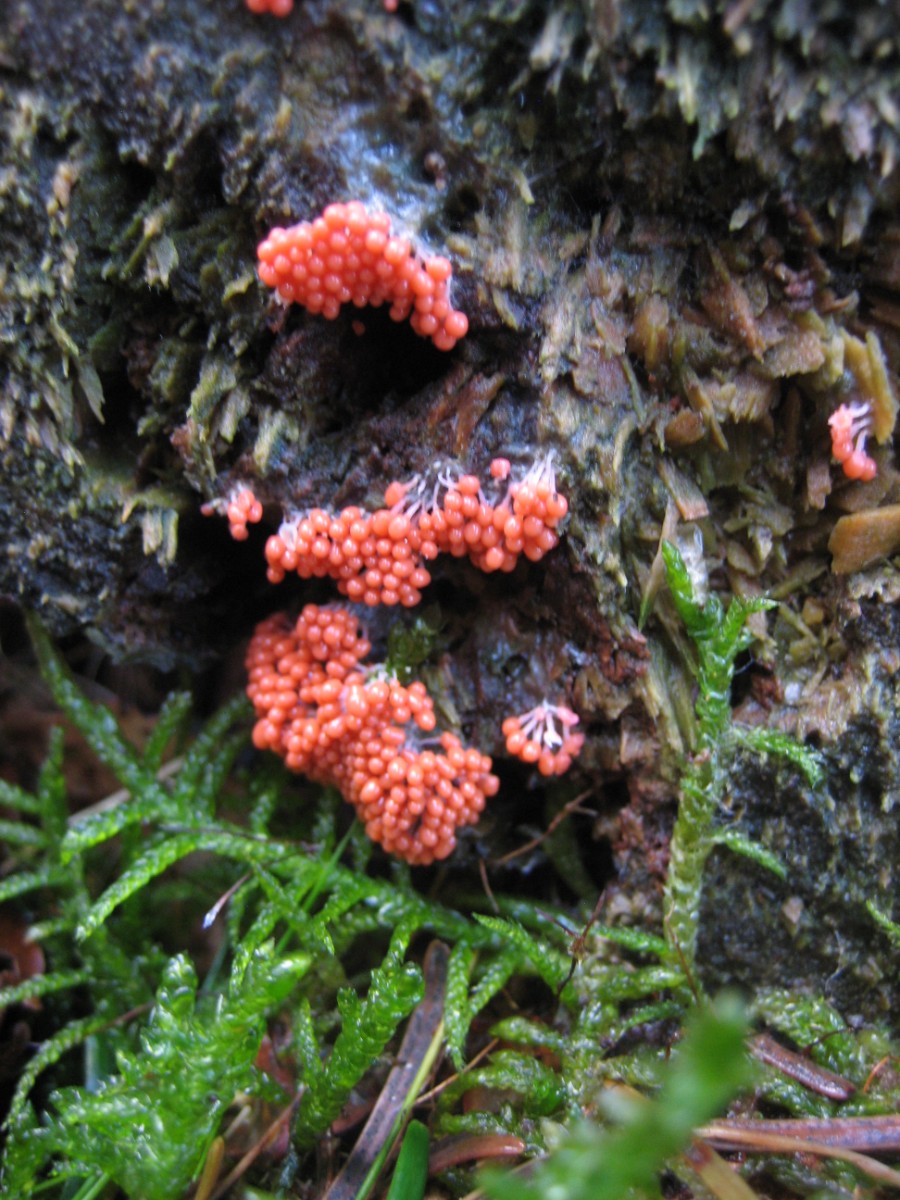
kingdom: Protozoa
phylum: Amoebozoa
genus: Arcyria
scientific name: Arcyria
